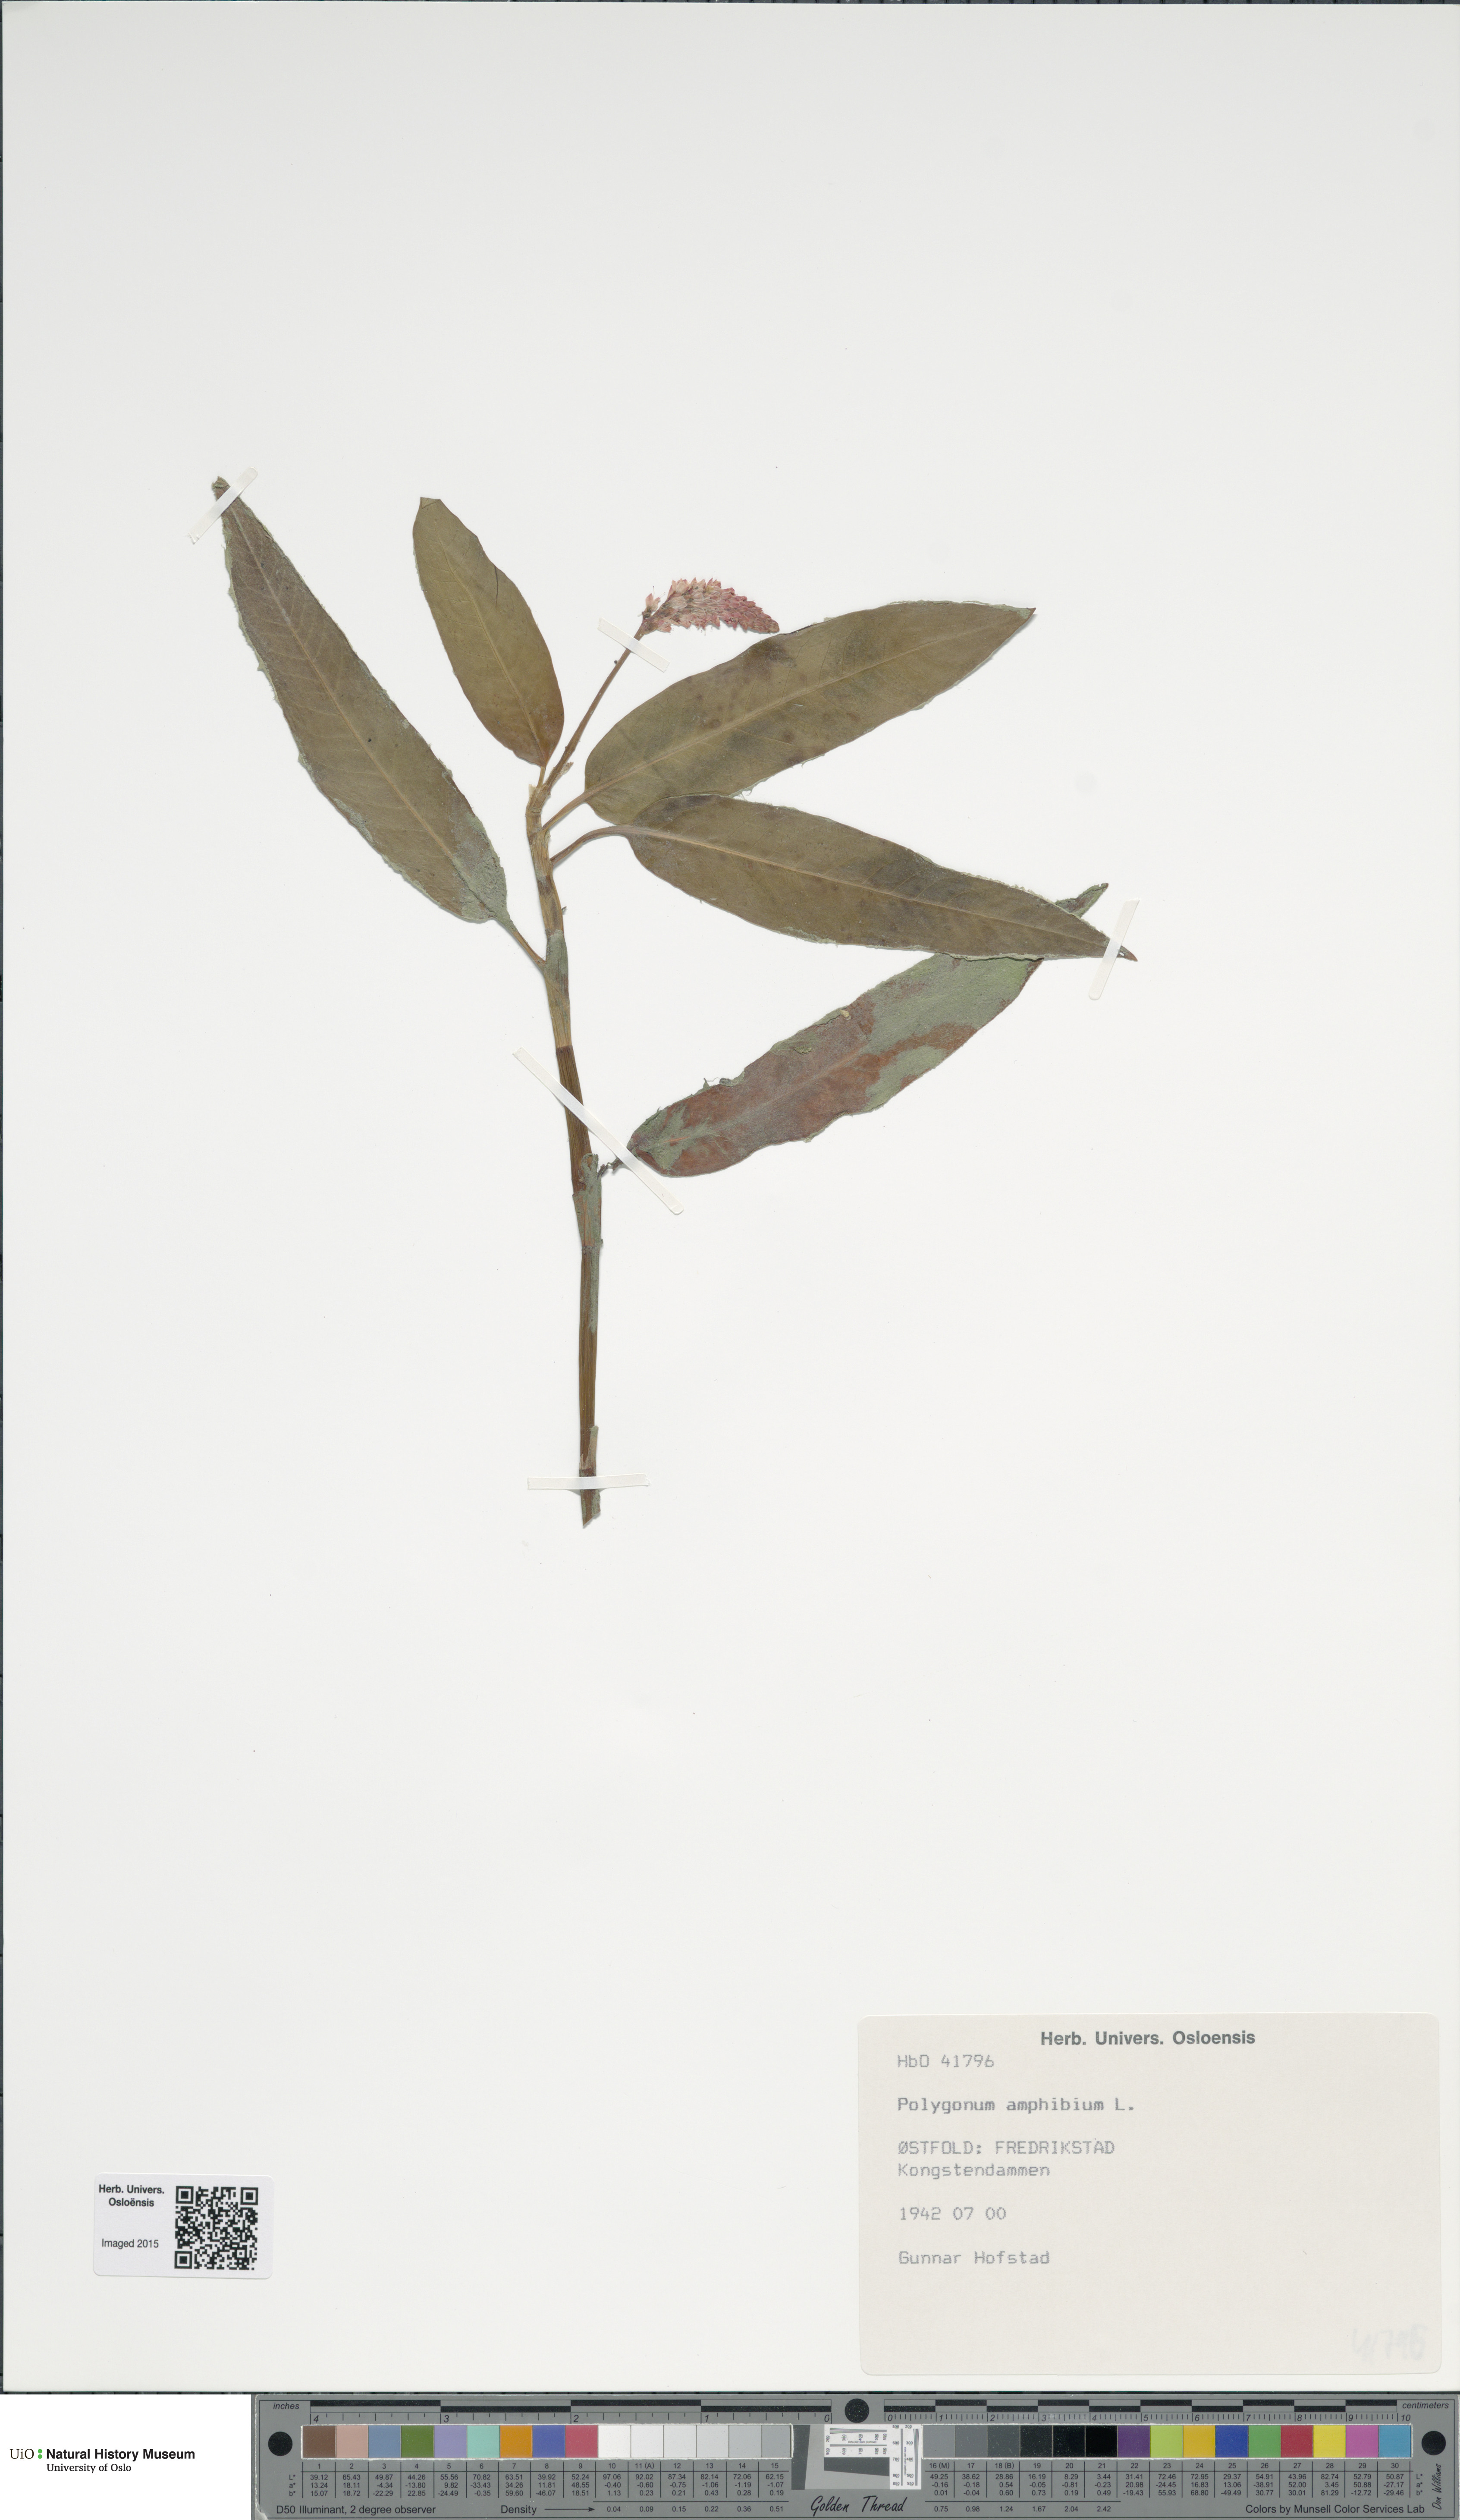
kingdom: Plantae
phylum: Tracheophyta
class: Magnoliopsida
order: Caryophyllales
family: Polygonaceae
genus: Persicaria
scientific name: Persicaria amphibia
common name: Amphibious bistort
